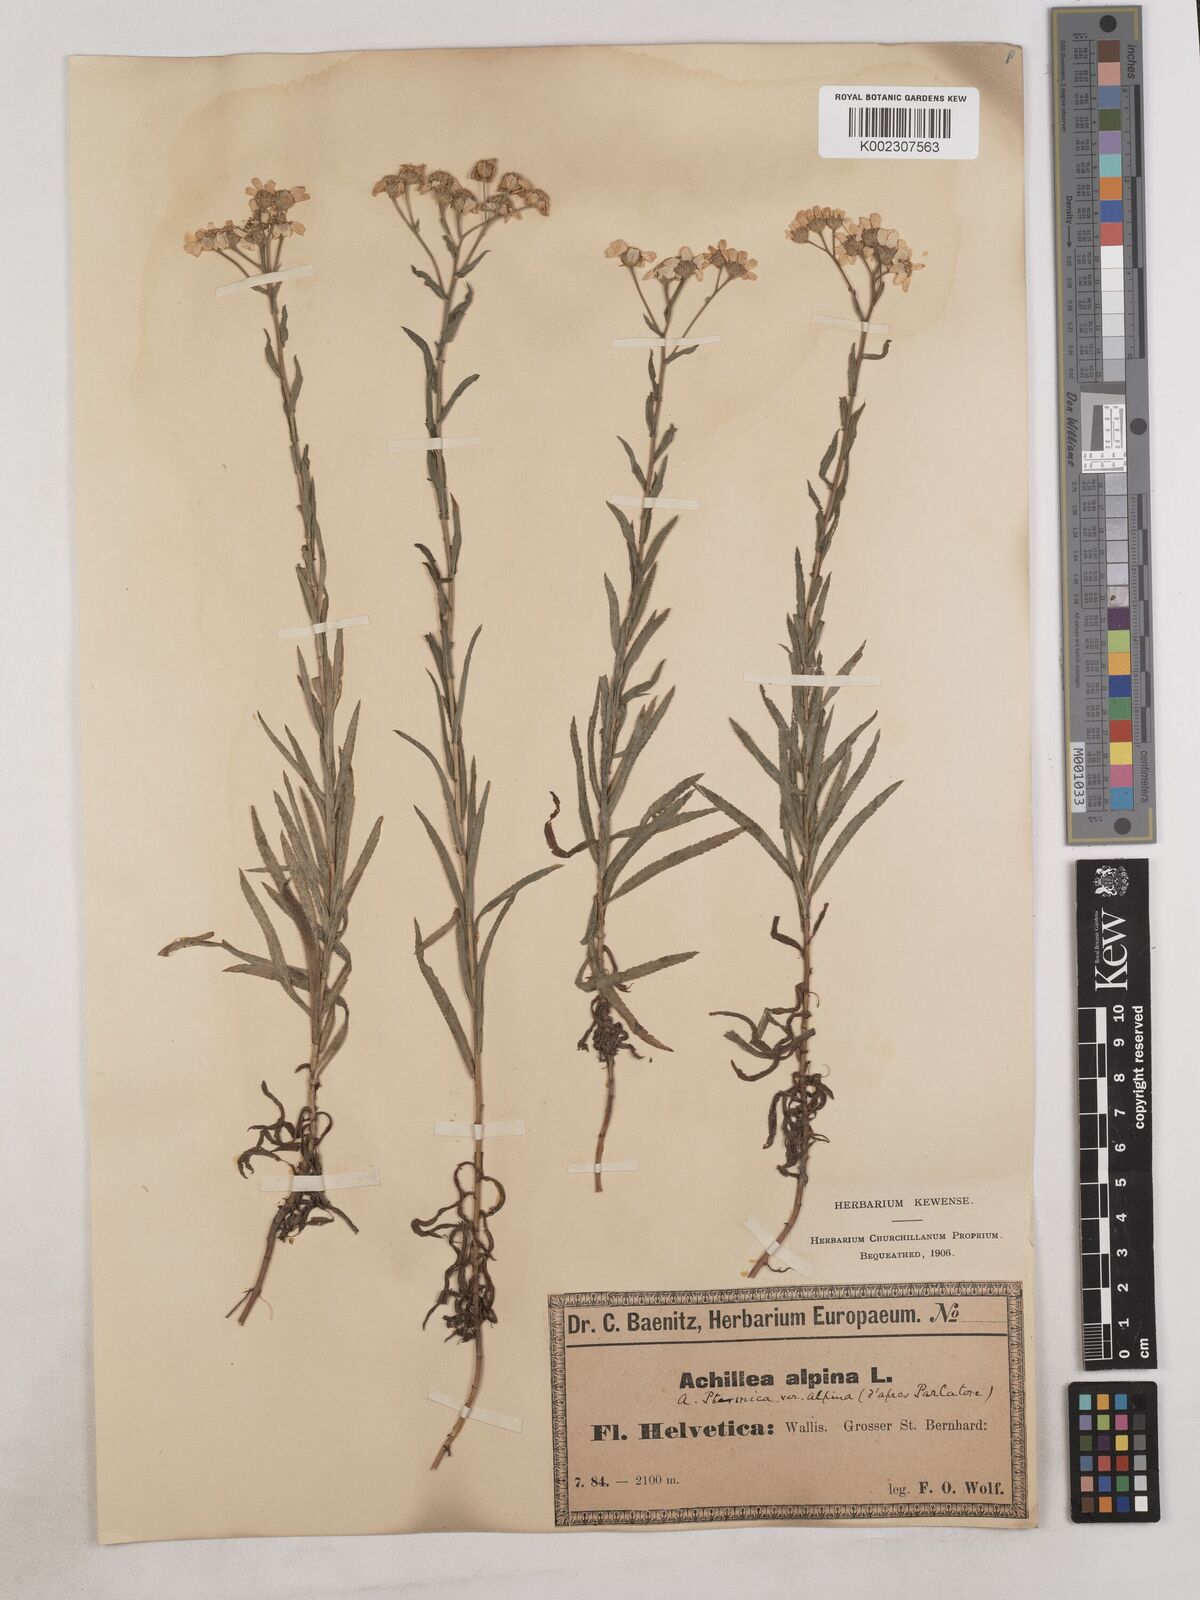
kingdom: Plantae
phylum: Tracheophyta
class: Magnoliopsida
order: Asterales
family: Asteraceae
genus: Achillea
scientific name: Achillea serrata
